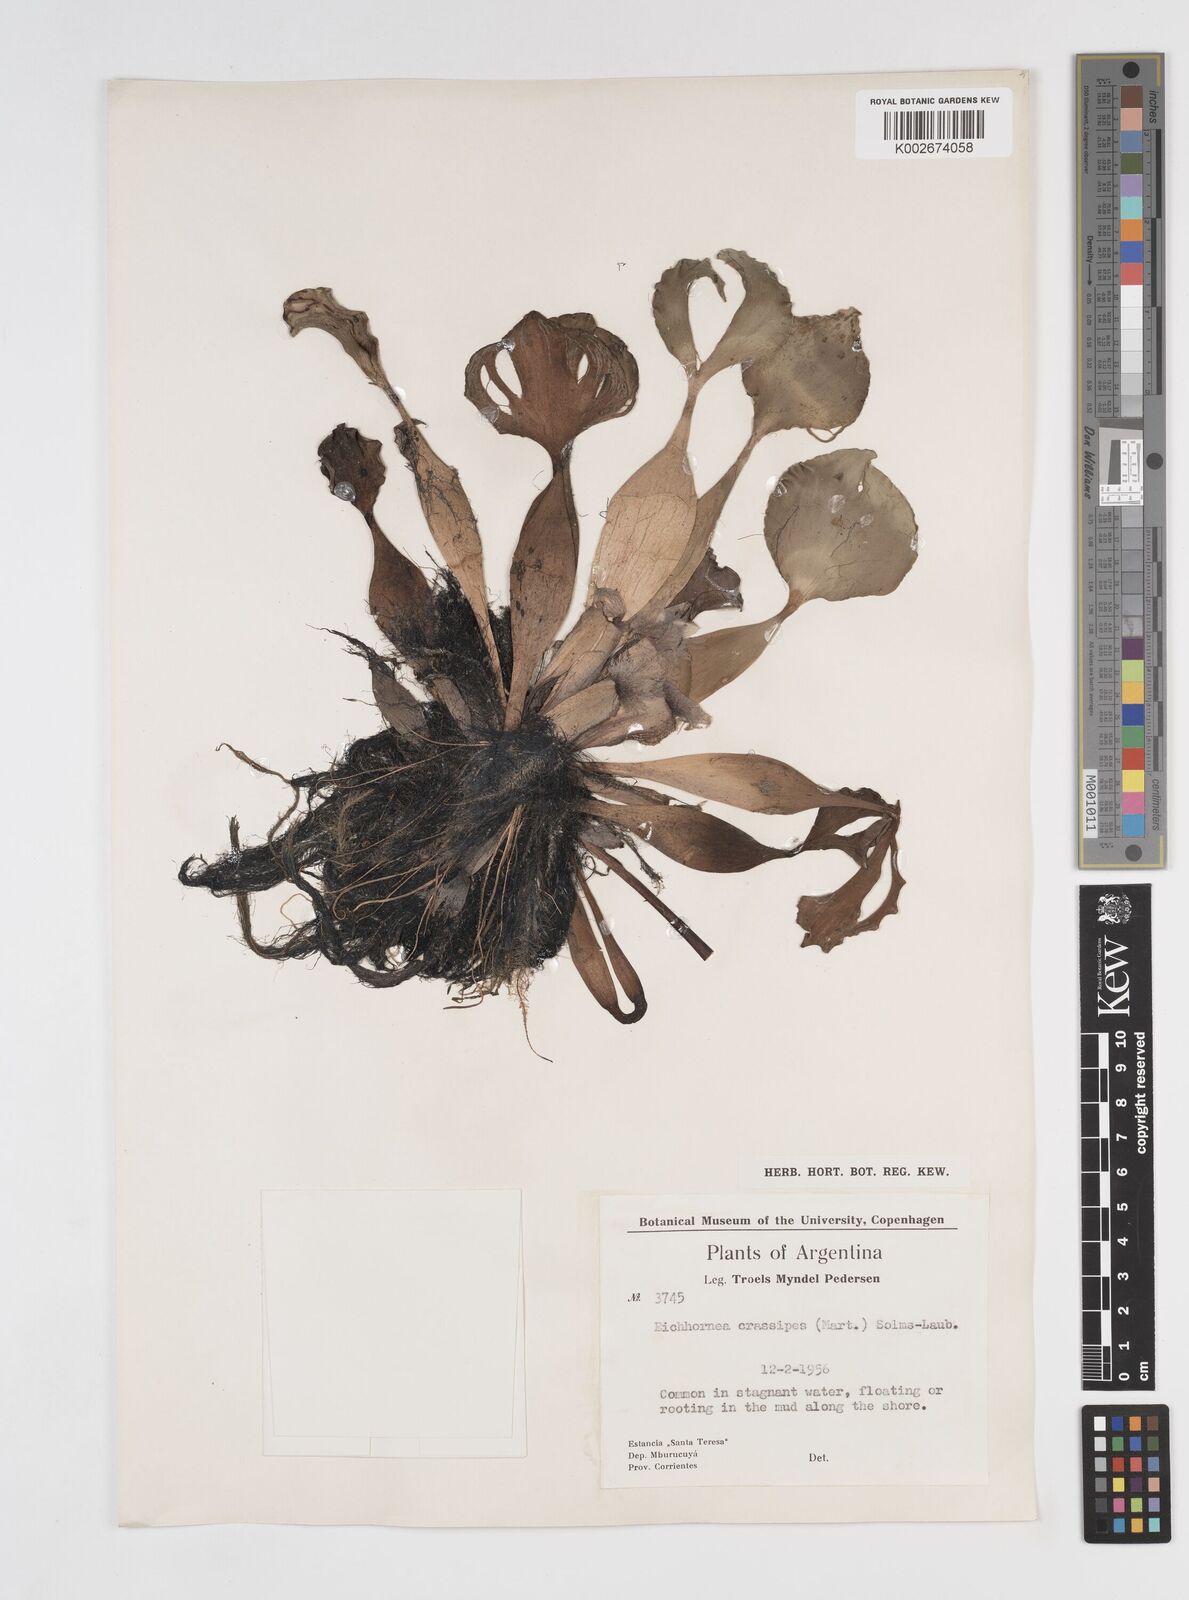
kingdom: Plantae
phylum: Tracheophyta
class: Liliopsida
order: Commelinales
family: Pontederiaceae
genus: Pontederia
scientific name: Pontederia crassipes
